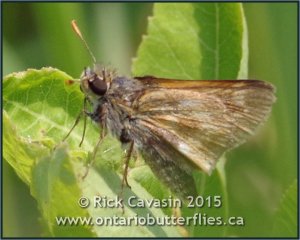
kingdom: Animalia
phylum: Arthropoda
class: Insecta
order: Lepidoptera
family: Hesperiidae
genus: Polites
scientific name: Polites
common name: Long Dash Skipper
